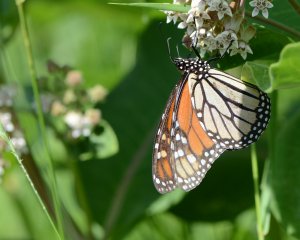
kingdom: Animalia
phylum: Arthropoda
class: Insecta
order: Lepidoptera
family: Nymphalidae
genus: Danaus
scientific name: Danaus plexippus
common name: Monarch
